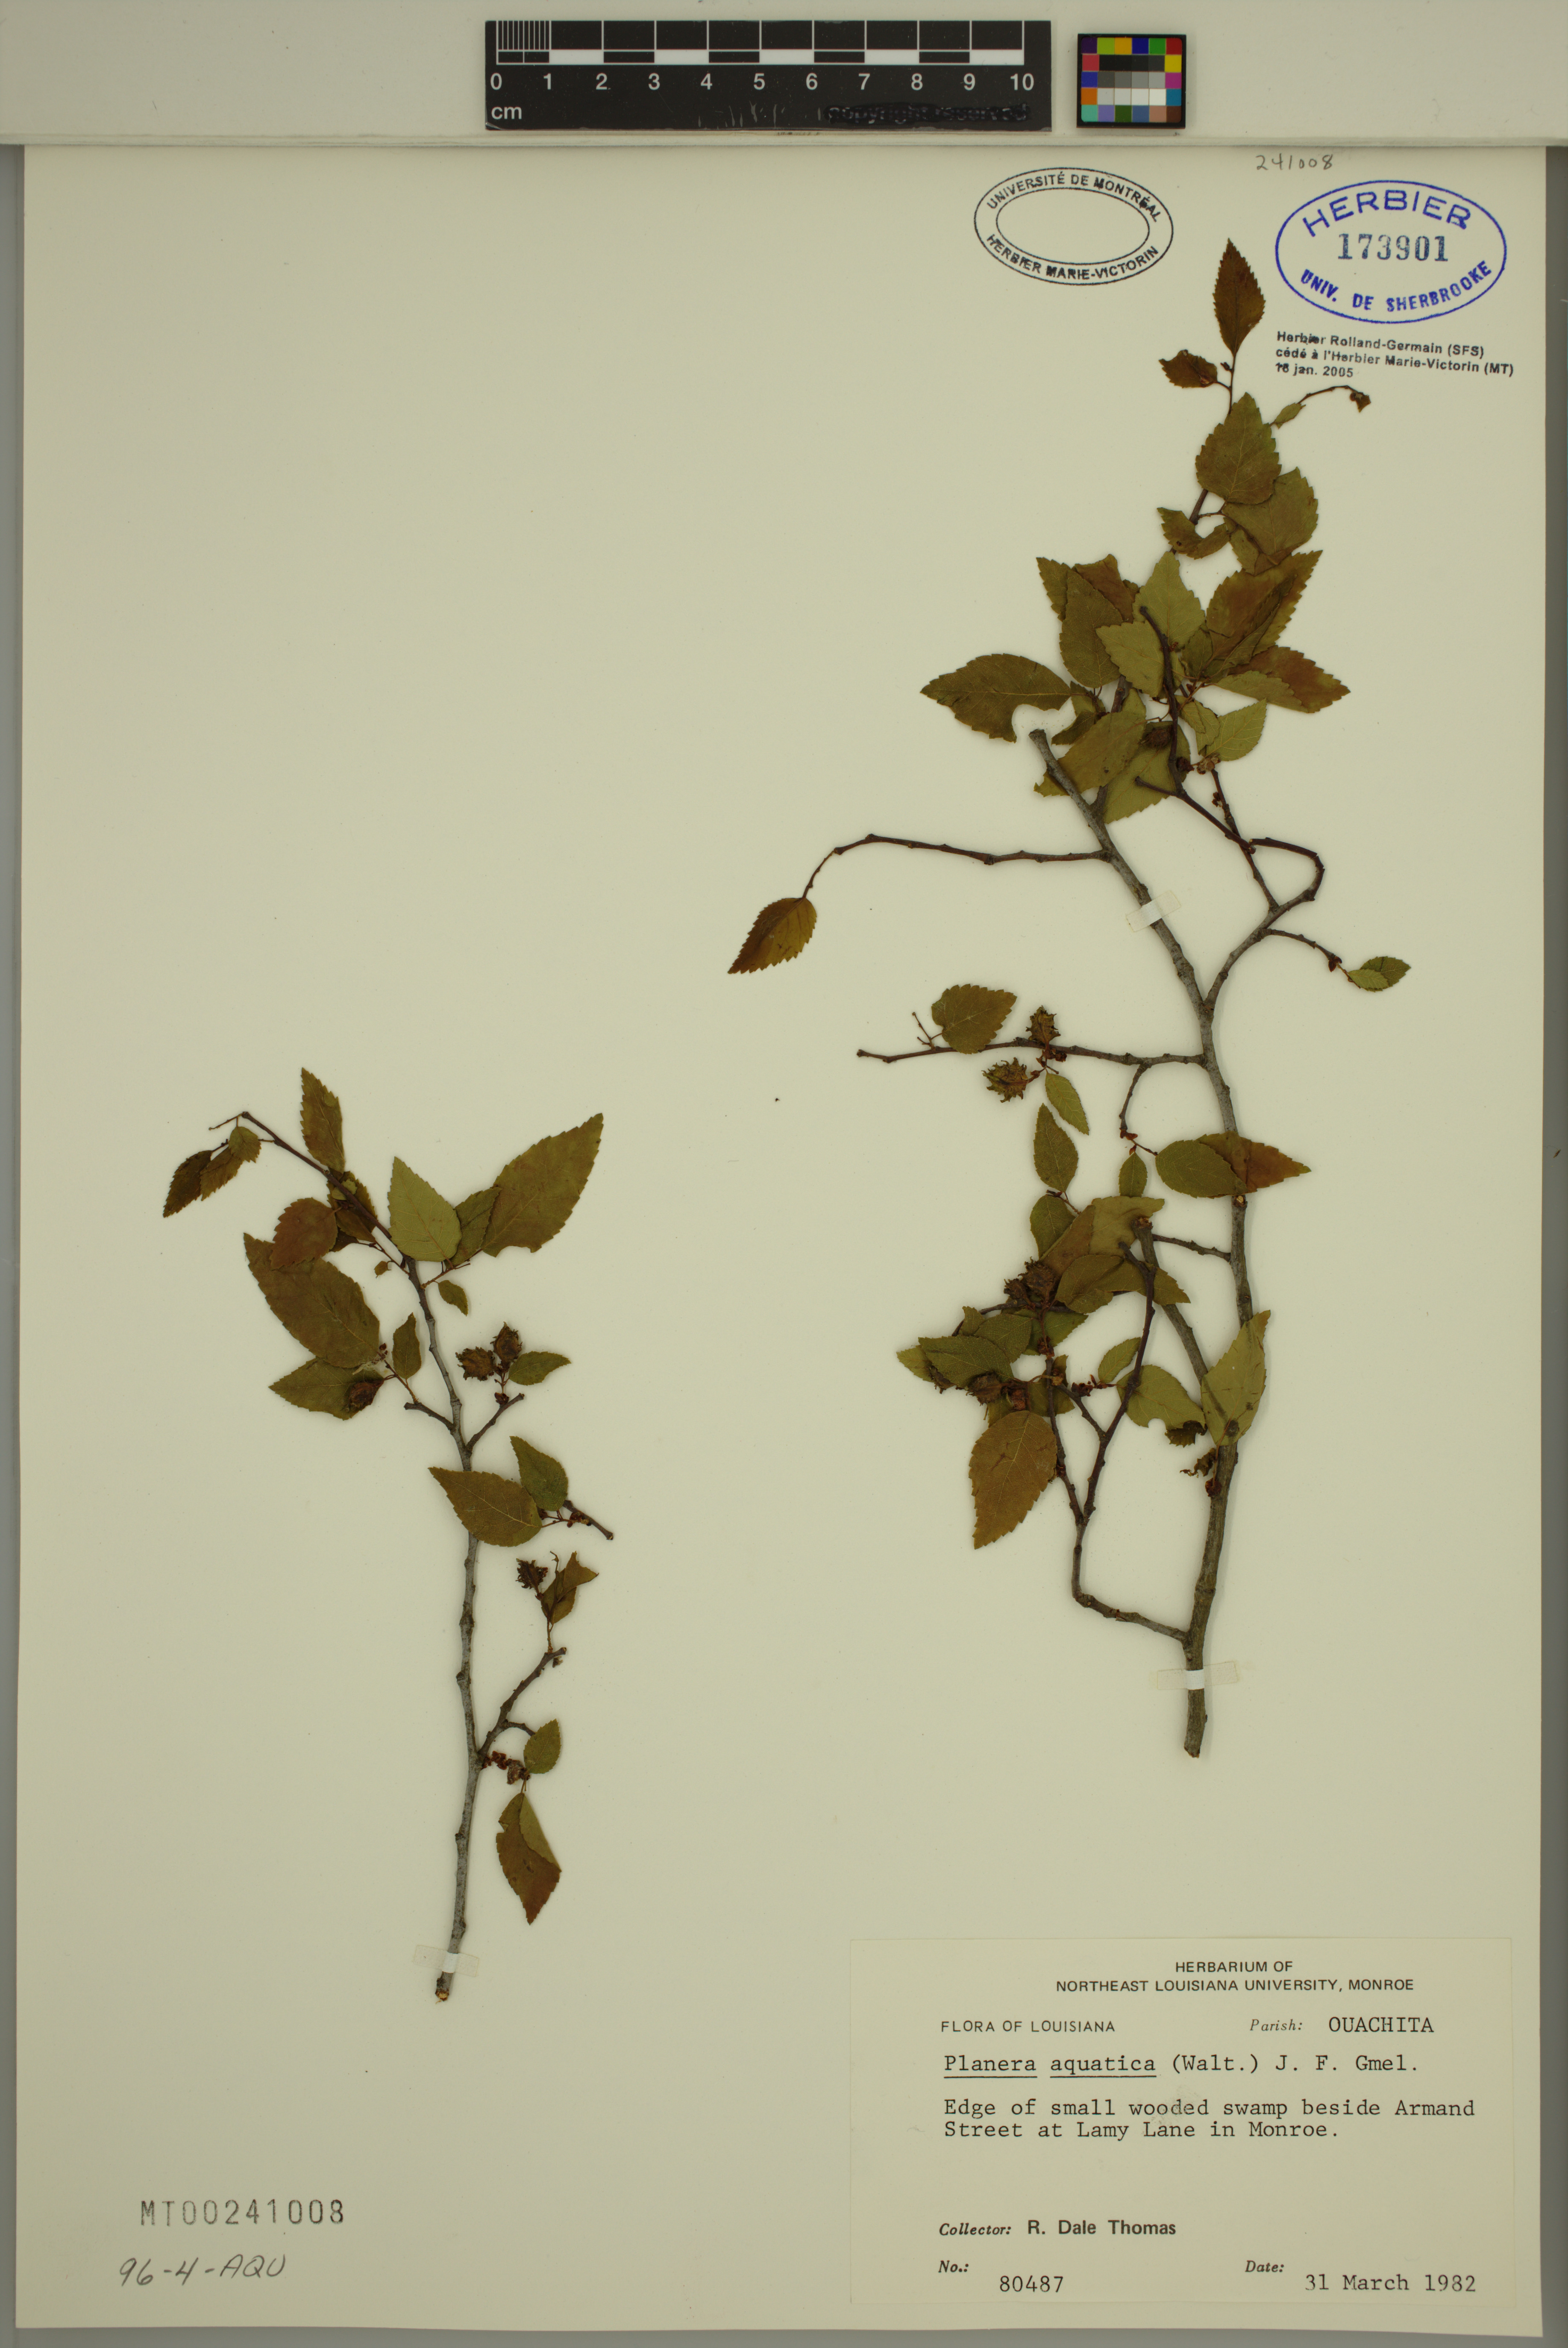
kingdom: Plantae
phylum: Tracheophyta
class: Magnoliopsida
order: Rosales
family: Ulmaceae
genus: Planera
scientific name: Planera aquatica
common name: Water-elm
